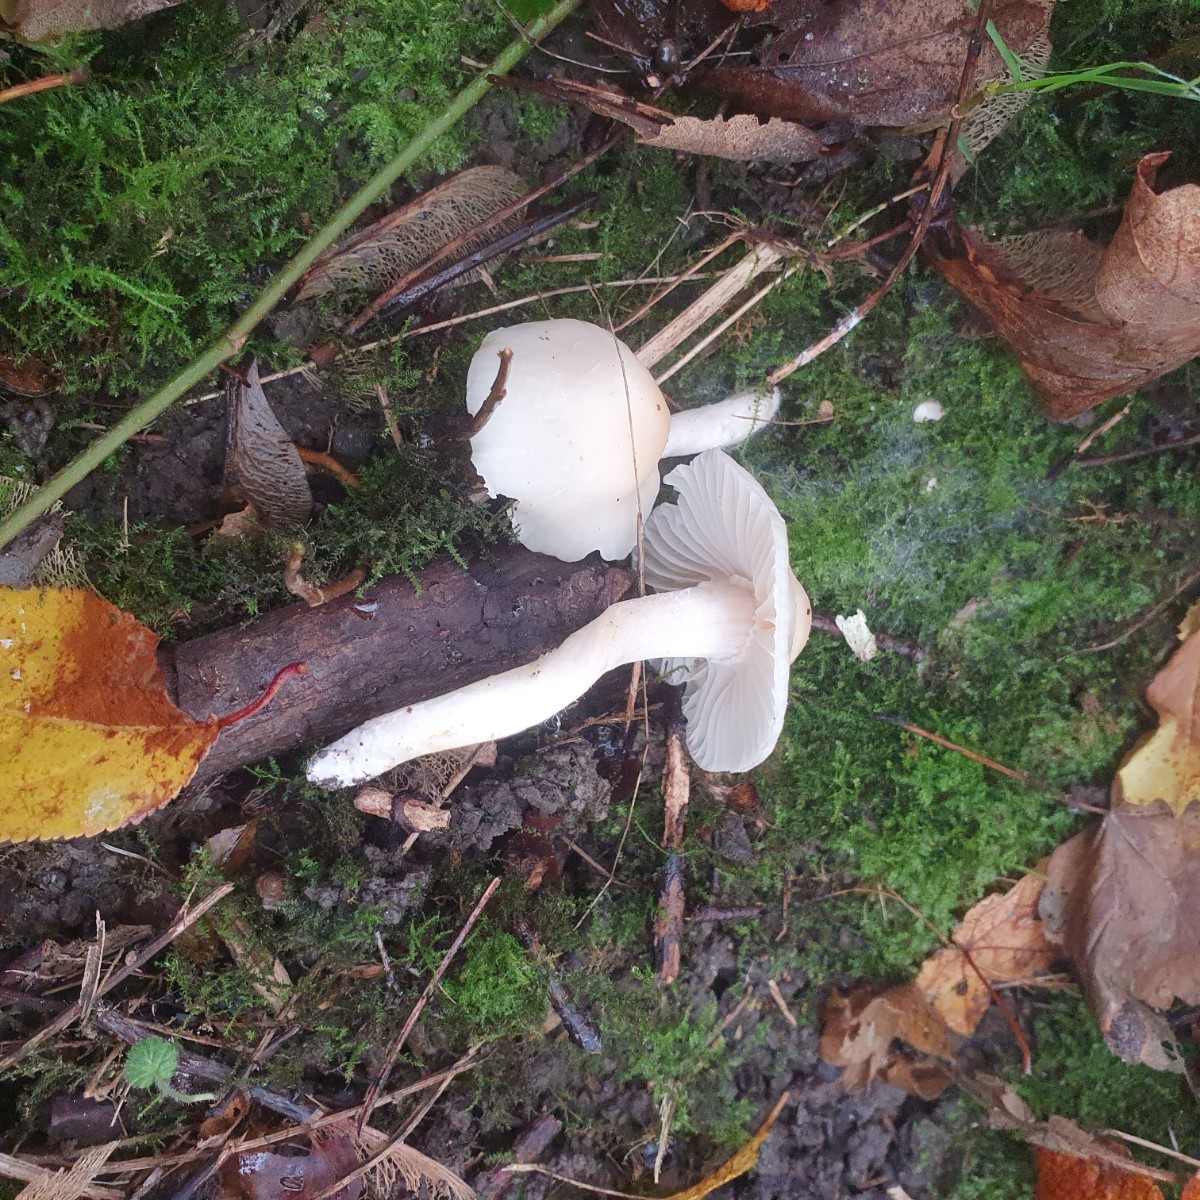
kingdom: Fungi
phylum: Basidiomycota
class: Agaricomycetes
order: Agaricales
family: Hygrophoraceae
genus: Cuphophyllus
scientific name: Cuphophyllus virgineus
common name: snehvid vokshat
